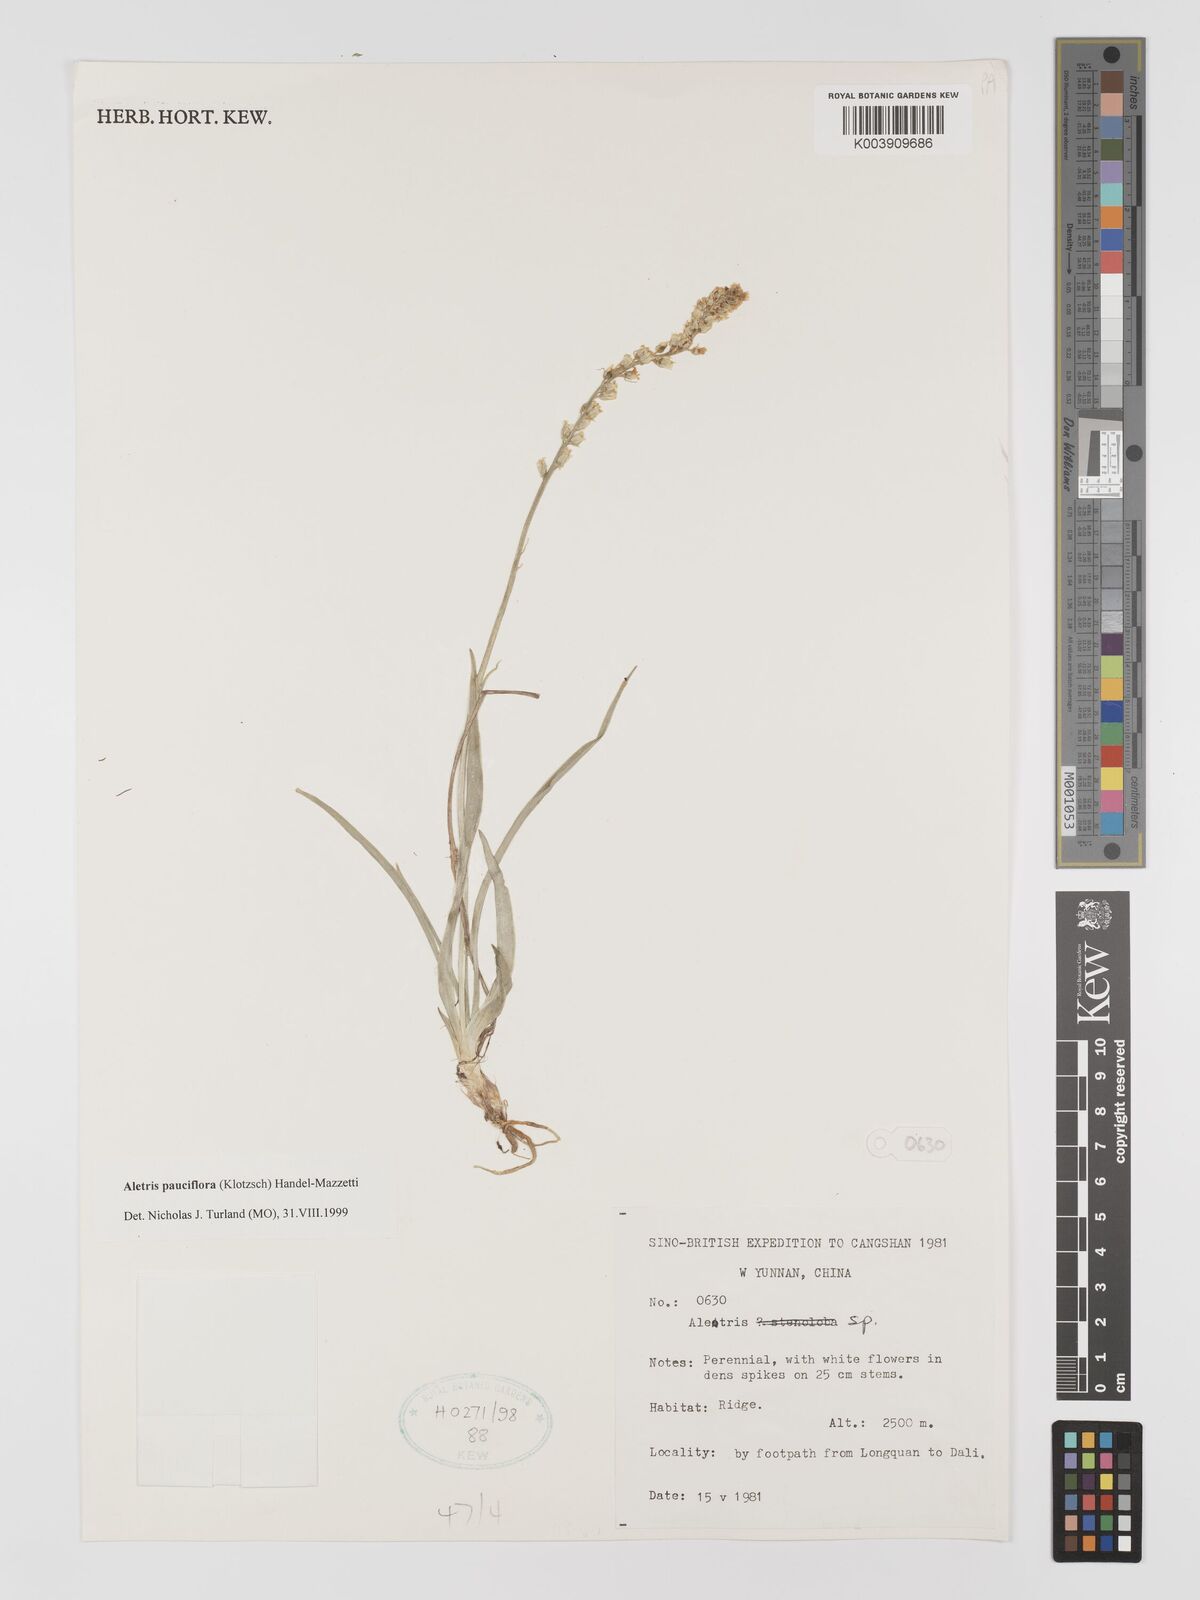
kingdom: Plantae
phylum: Tracheophyta
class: Liliopsida
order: Dioscoreales
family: Nartheciaceae
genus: Aletris
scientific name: Aletris pauciflora
